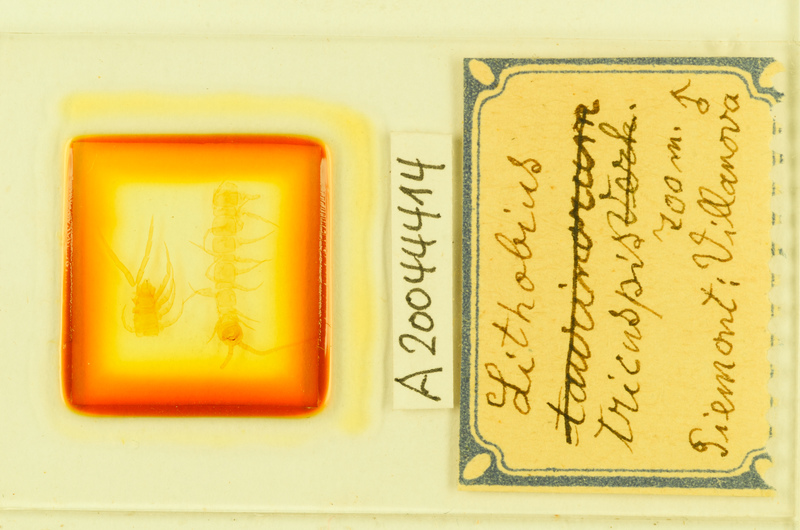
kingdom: Animalia
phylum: Arthropoda
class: Chilopoda
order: Lithobiomorpha
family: Lithobiidae
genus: Lithobius
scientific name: Lithobius tricuspis
